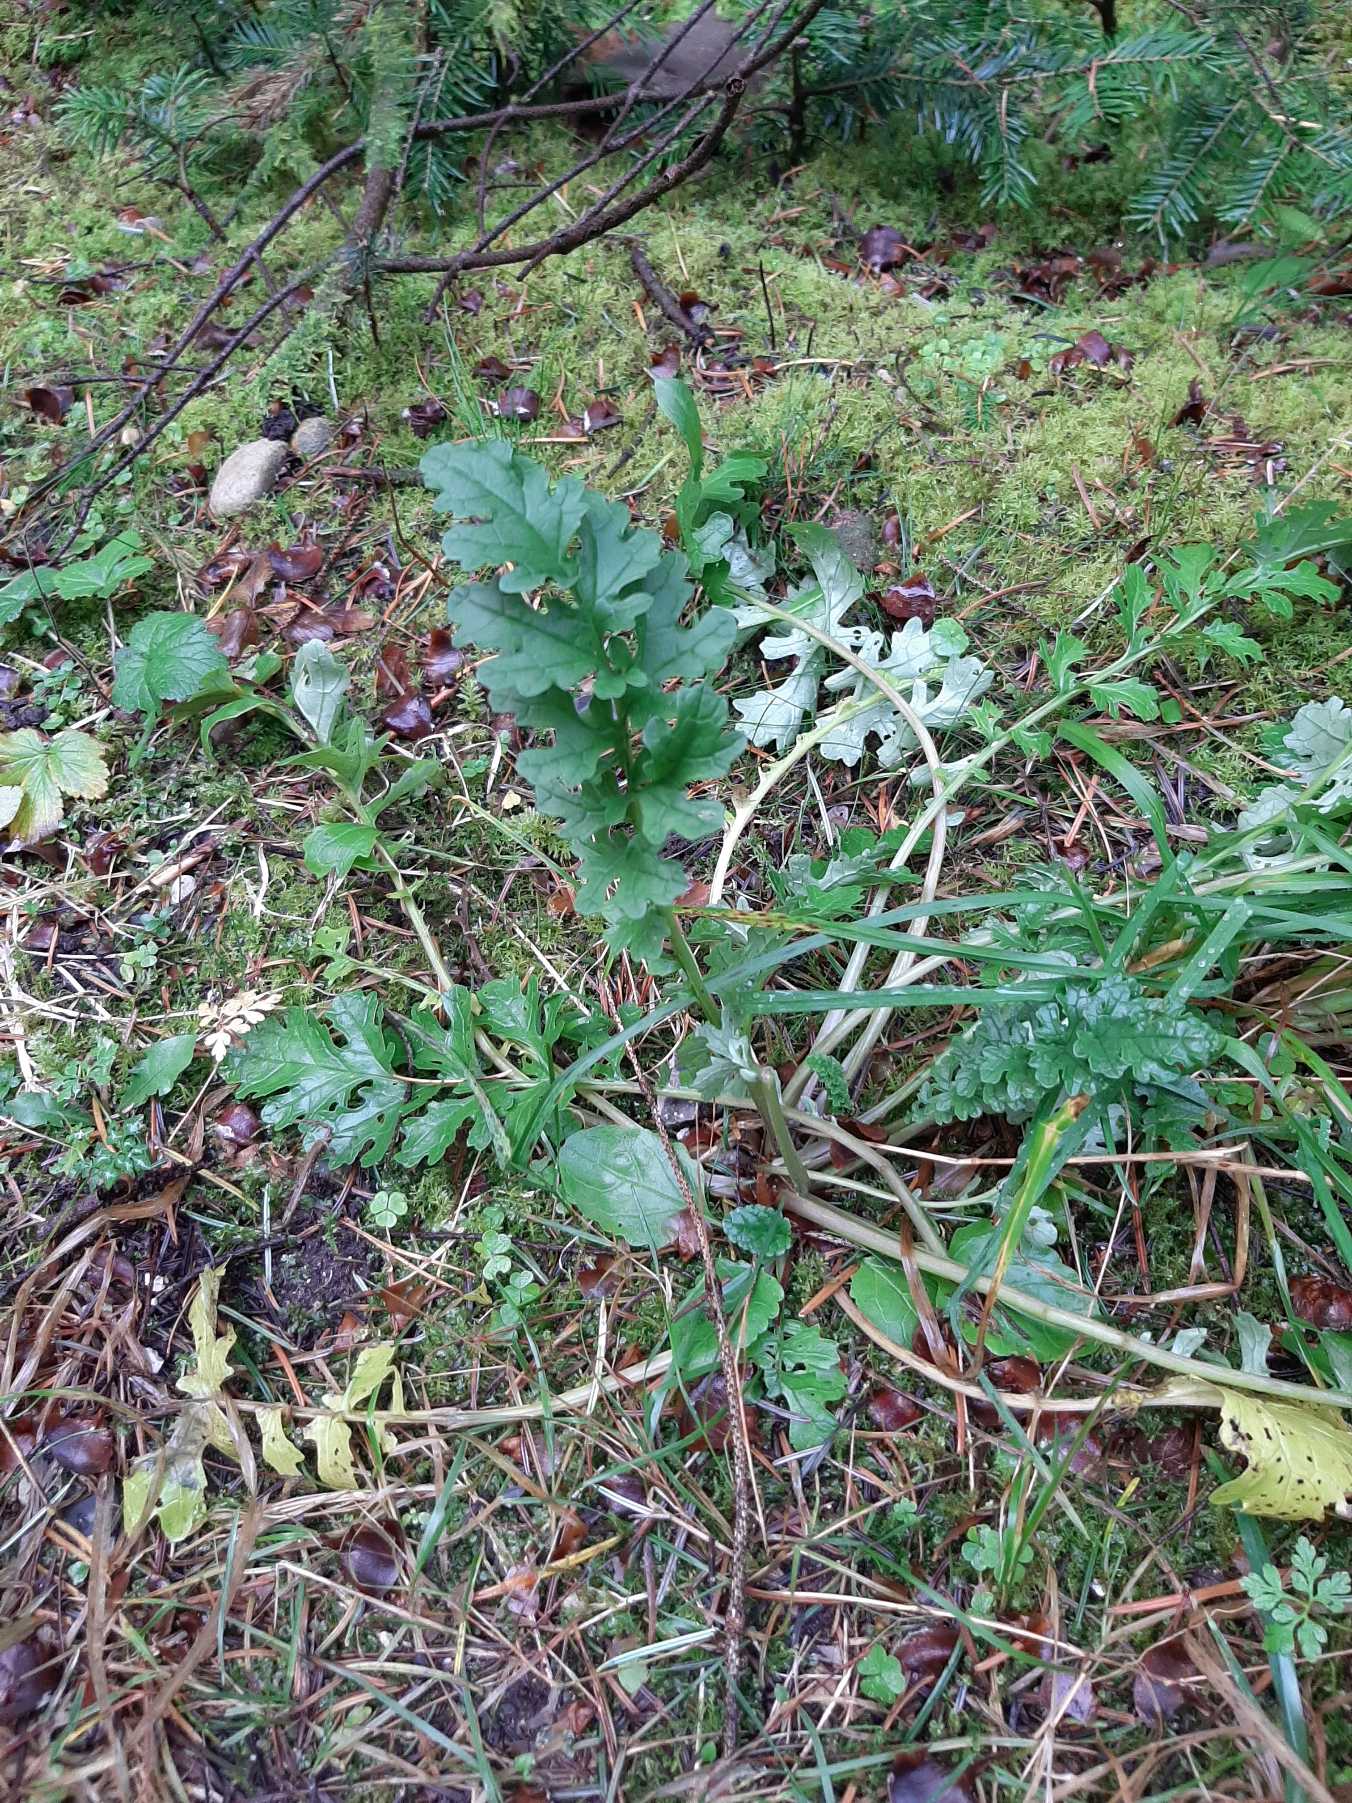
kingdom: Plantae
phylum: Tracheophyta
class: Magnoliopsida
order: Asterales
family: Asteraceae
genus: Jacobaea
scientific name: Jacobaea vulgaris
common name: Eng-brandbæger
